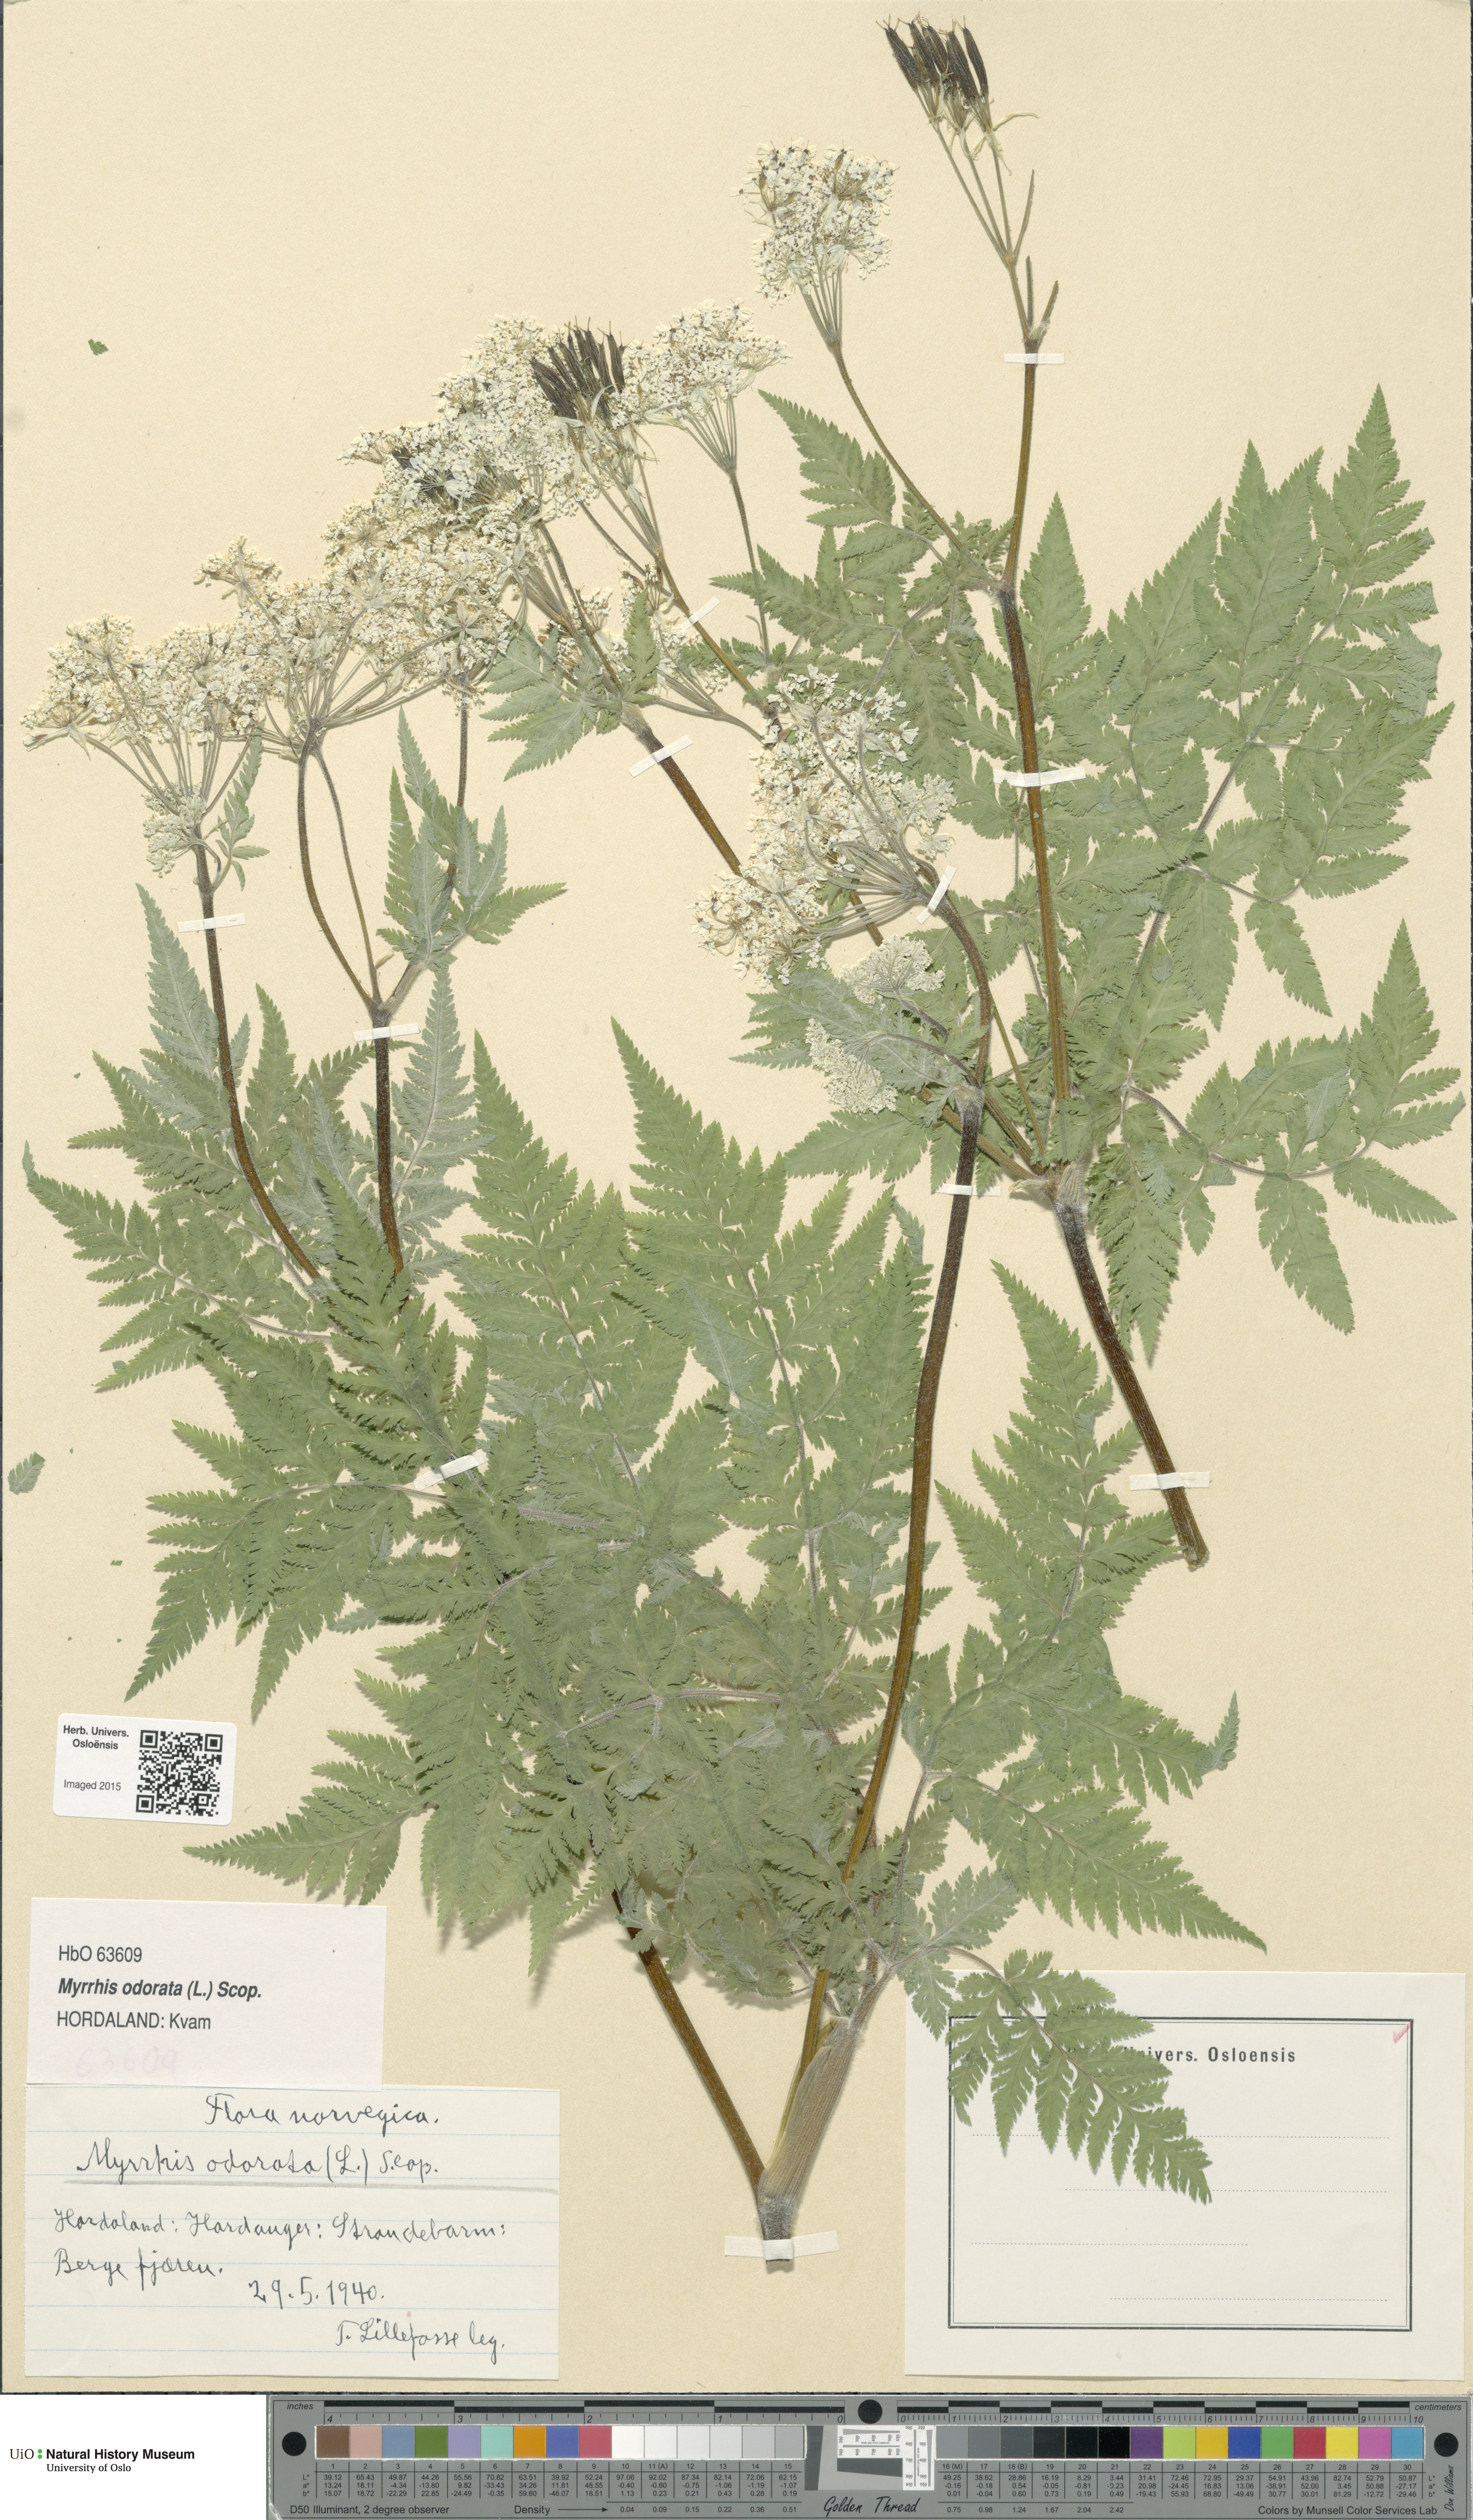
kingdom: Plantae
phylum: Tracheophyta
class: Magnoliopsida
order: Apiales
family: Apiaceae
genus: Myrrhis
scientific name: Myrrhis odorata
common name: Sweet cicely
